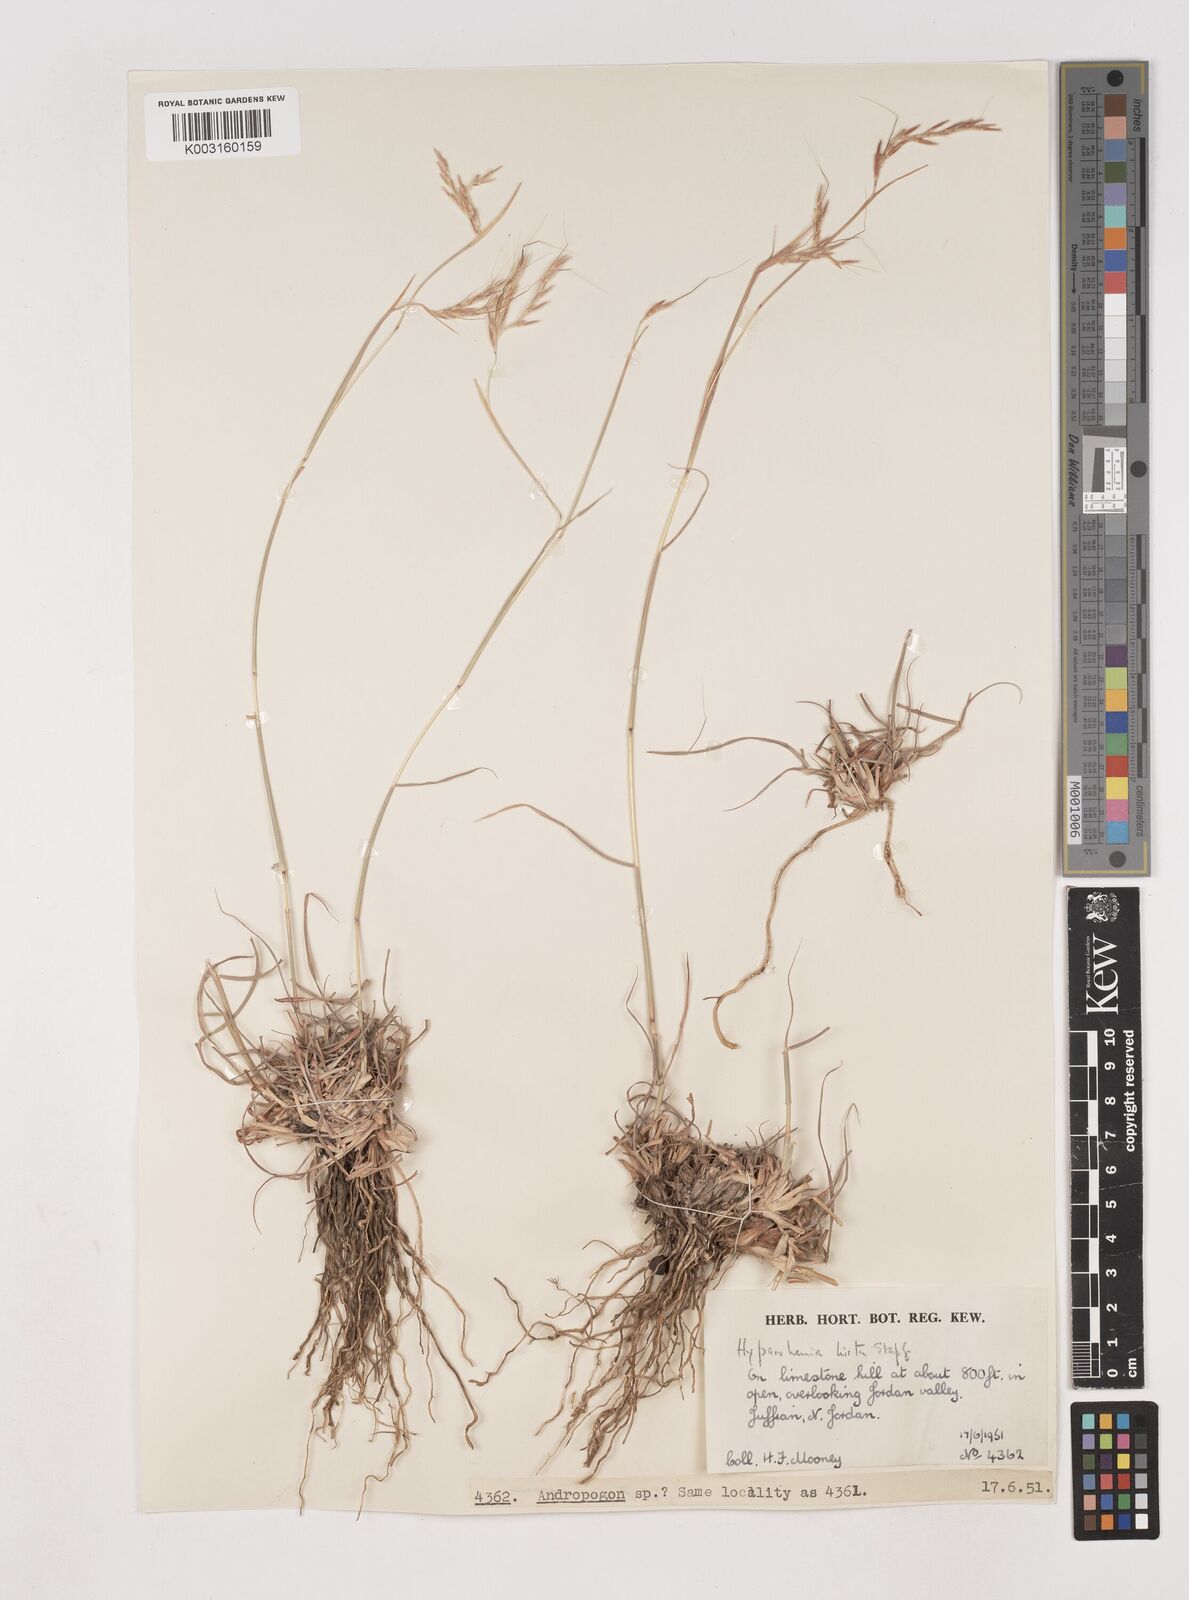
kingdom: Plantae
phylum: Tracheophyta
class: Liliopsida
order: Poales
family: Poaceae
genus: Hyparrhenia
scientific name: Hyparrhenia hirta
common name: Thatching grass
